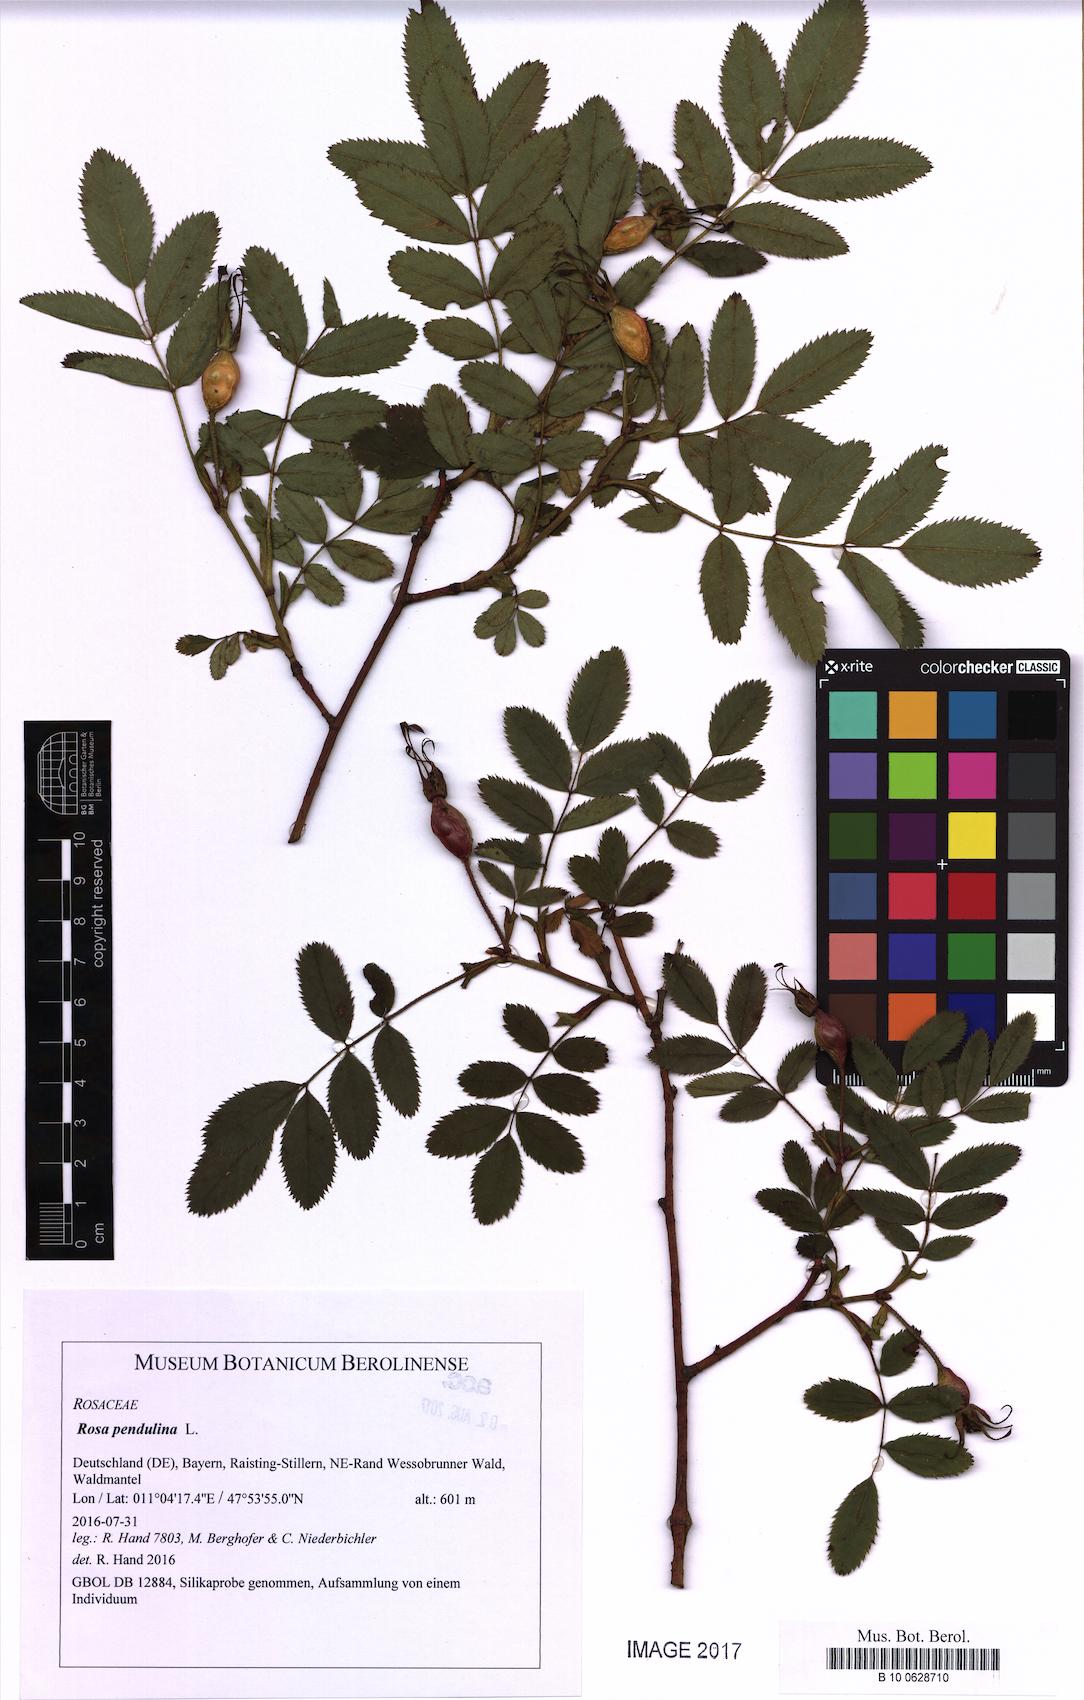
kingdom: Plantae
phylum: Tracheophyta
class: Magnoliopsida
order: Rosales
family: Rosaceae
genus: Rosa
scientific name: Rosa pendulina
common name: Alpine rose
